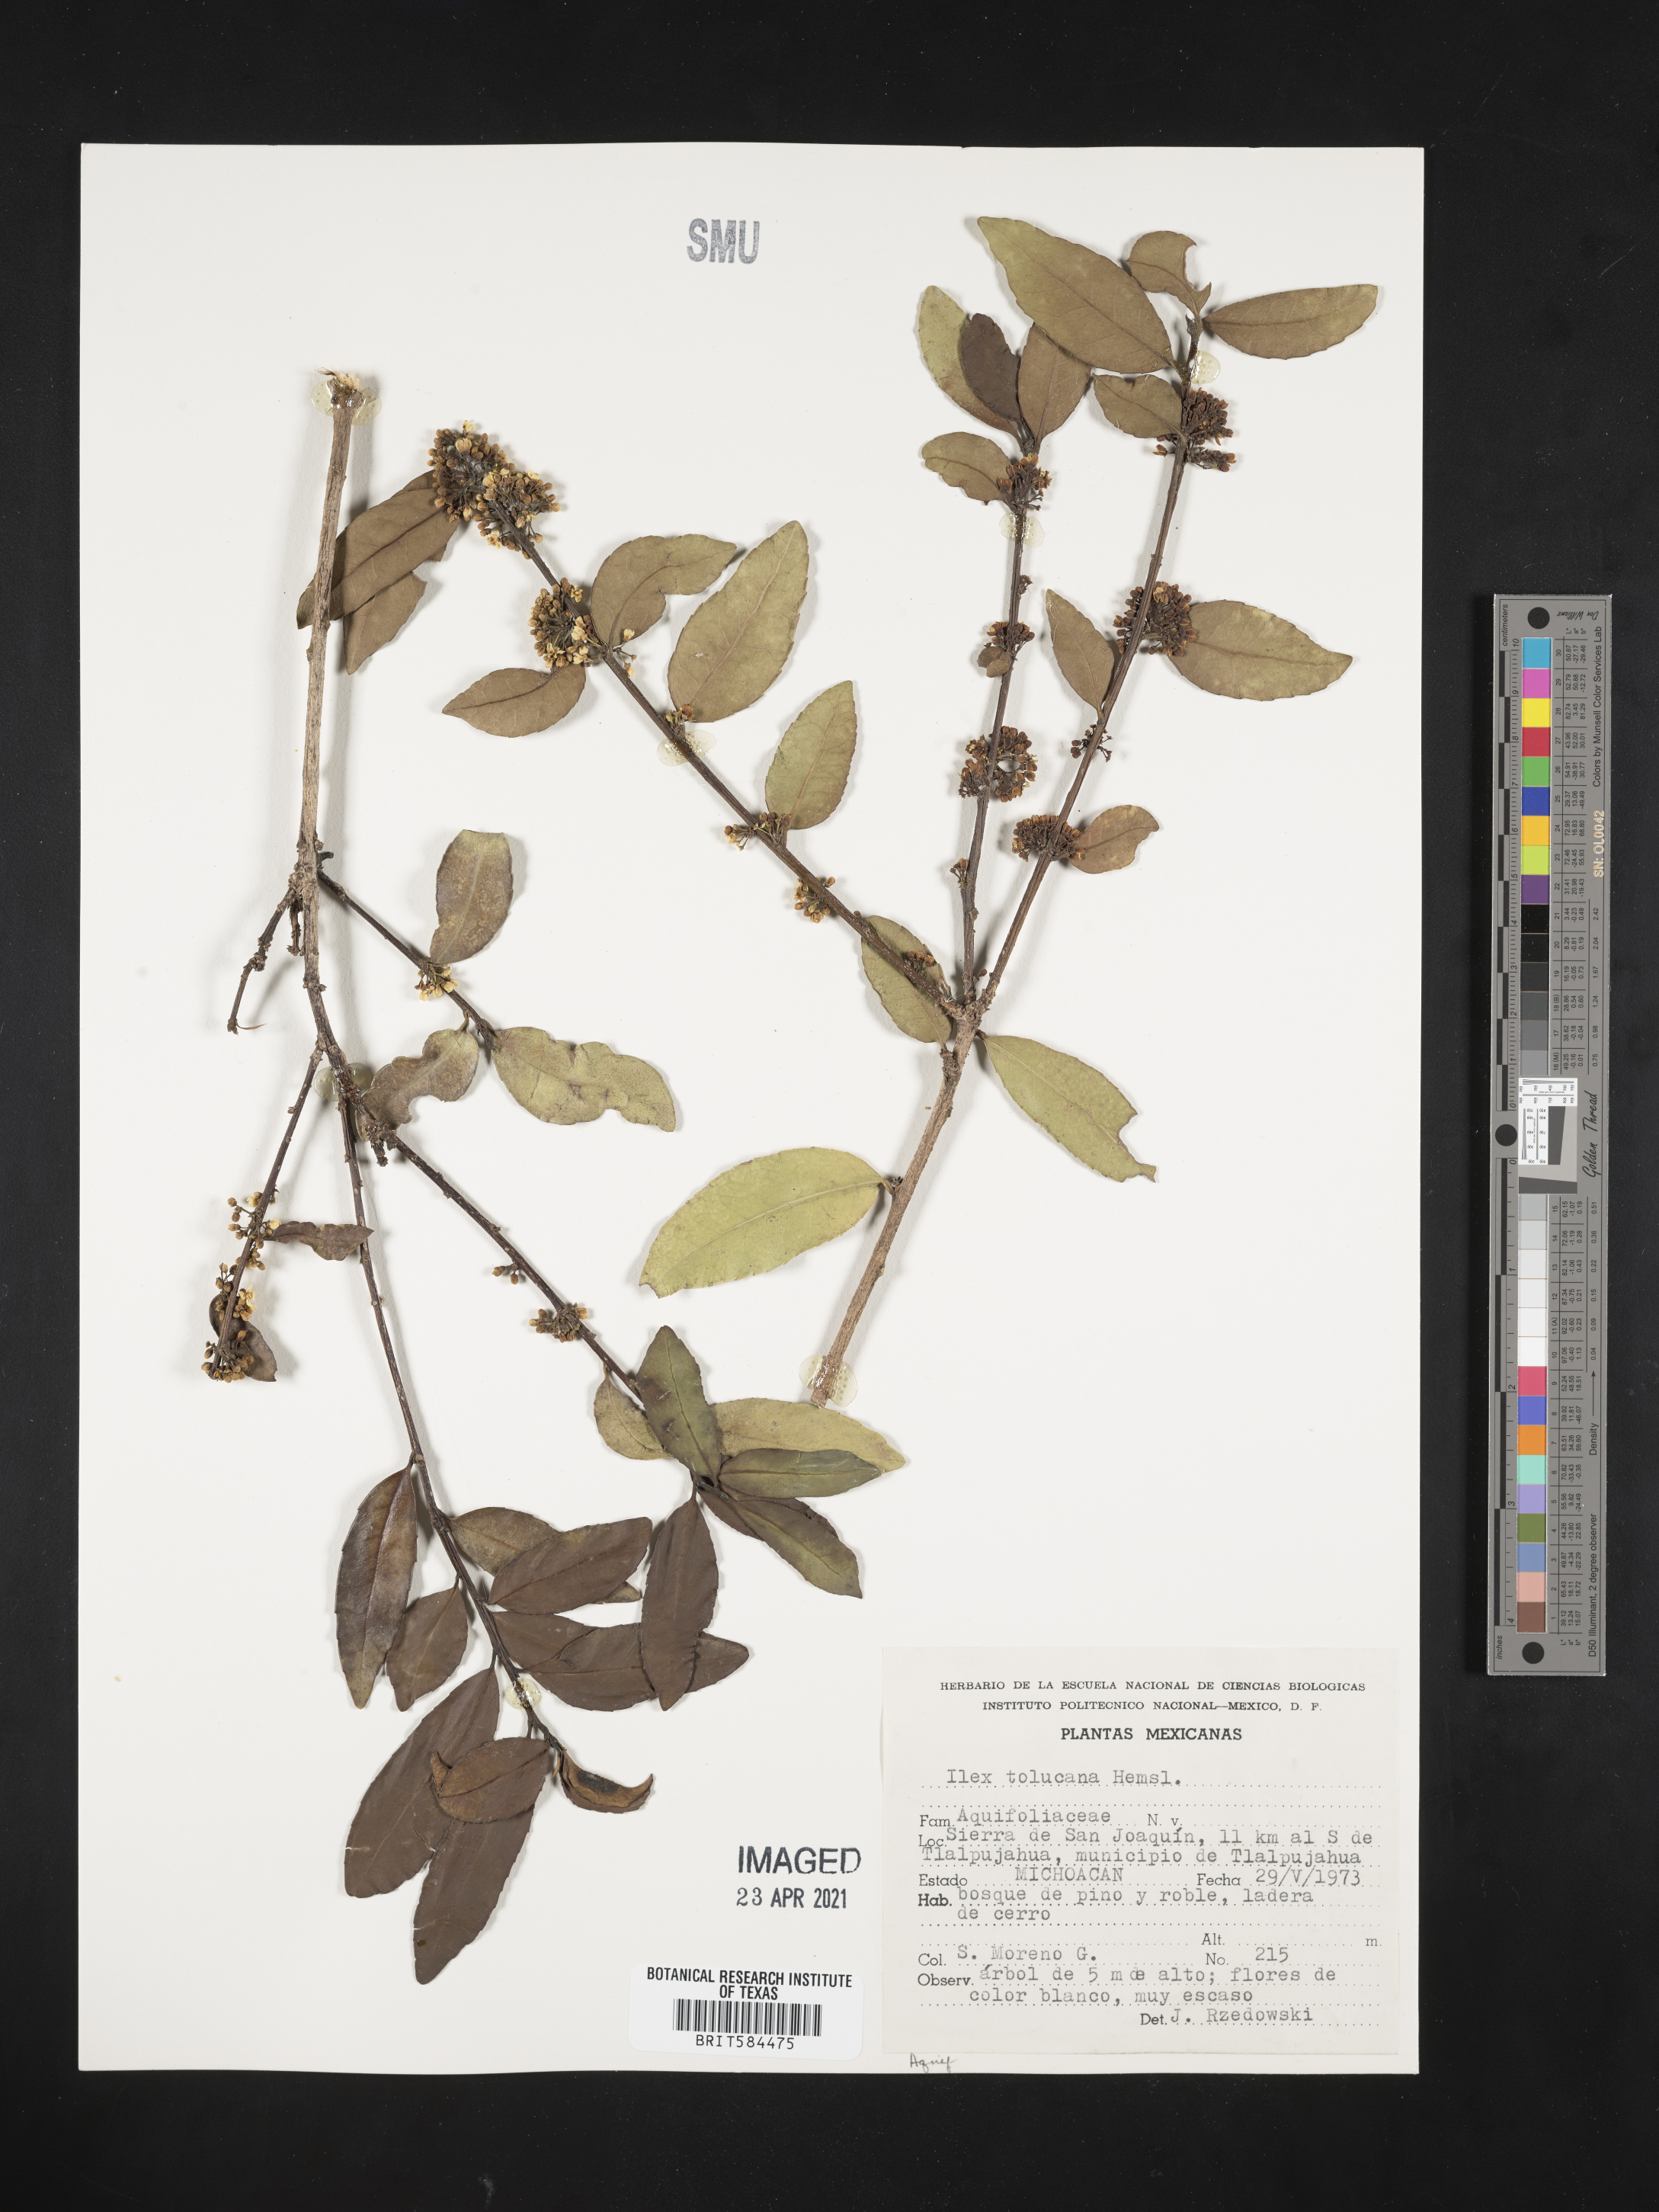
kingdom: Plantae
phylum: Tracheophyta
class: Magnoliopsida
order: Aquifoliales
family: Aquifoliaceae
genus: Ilex
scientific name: Ilex discolor
